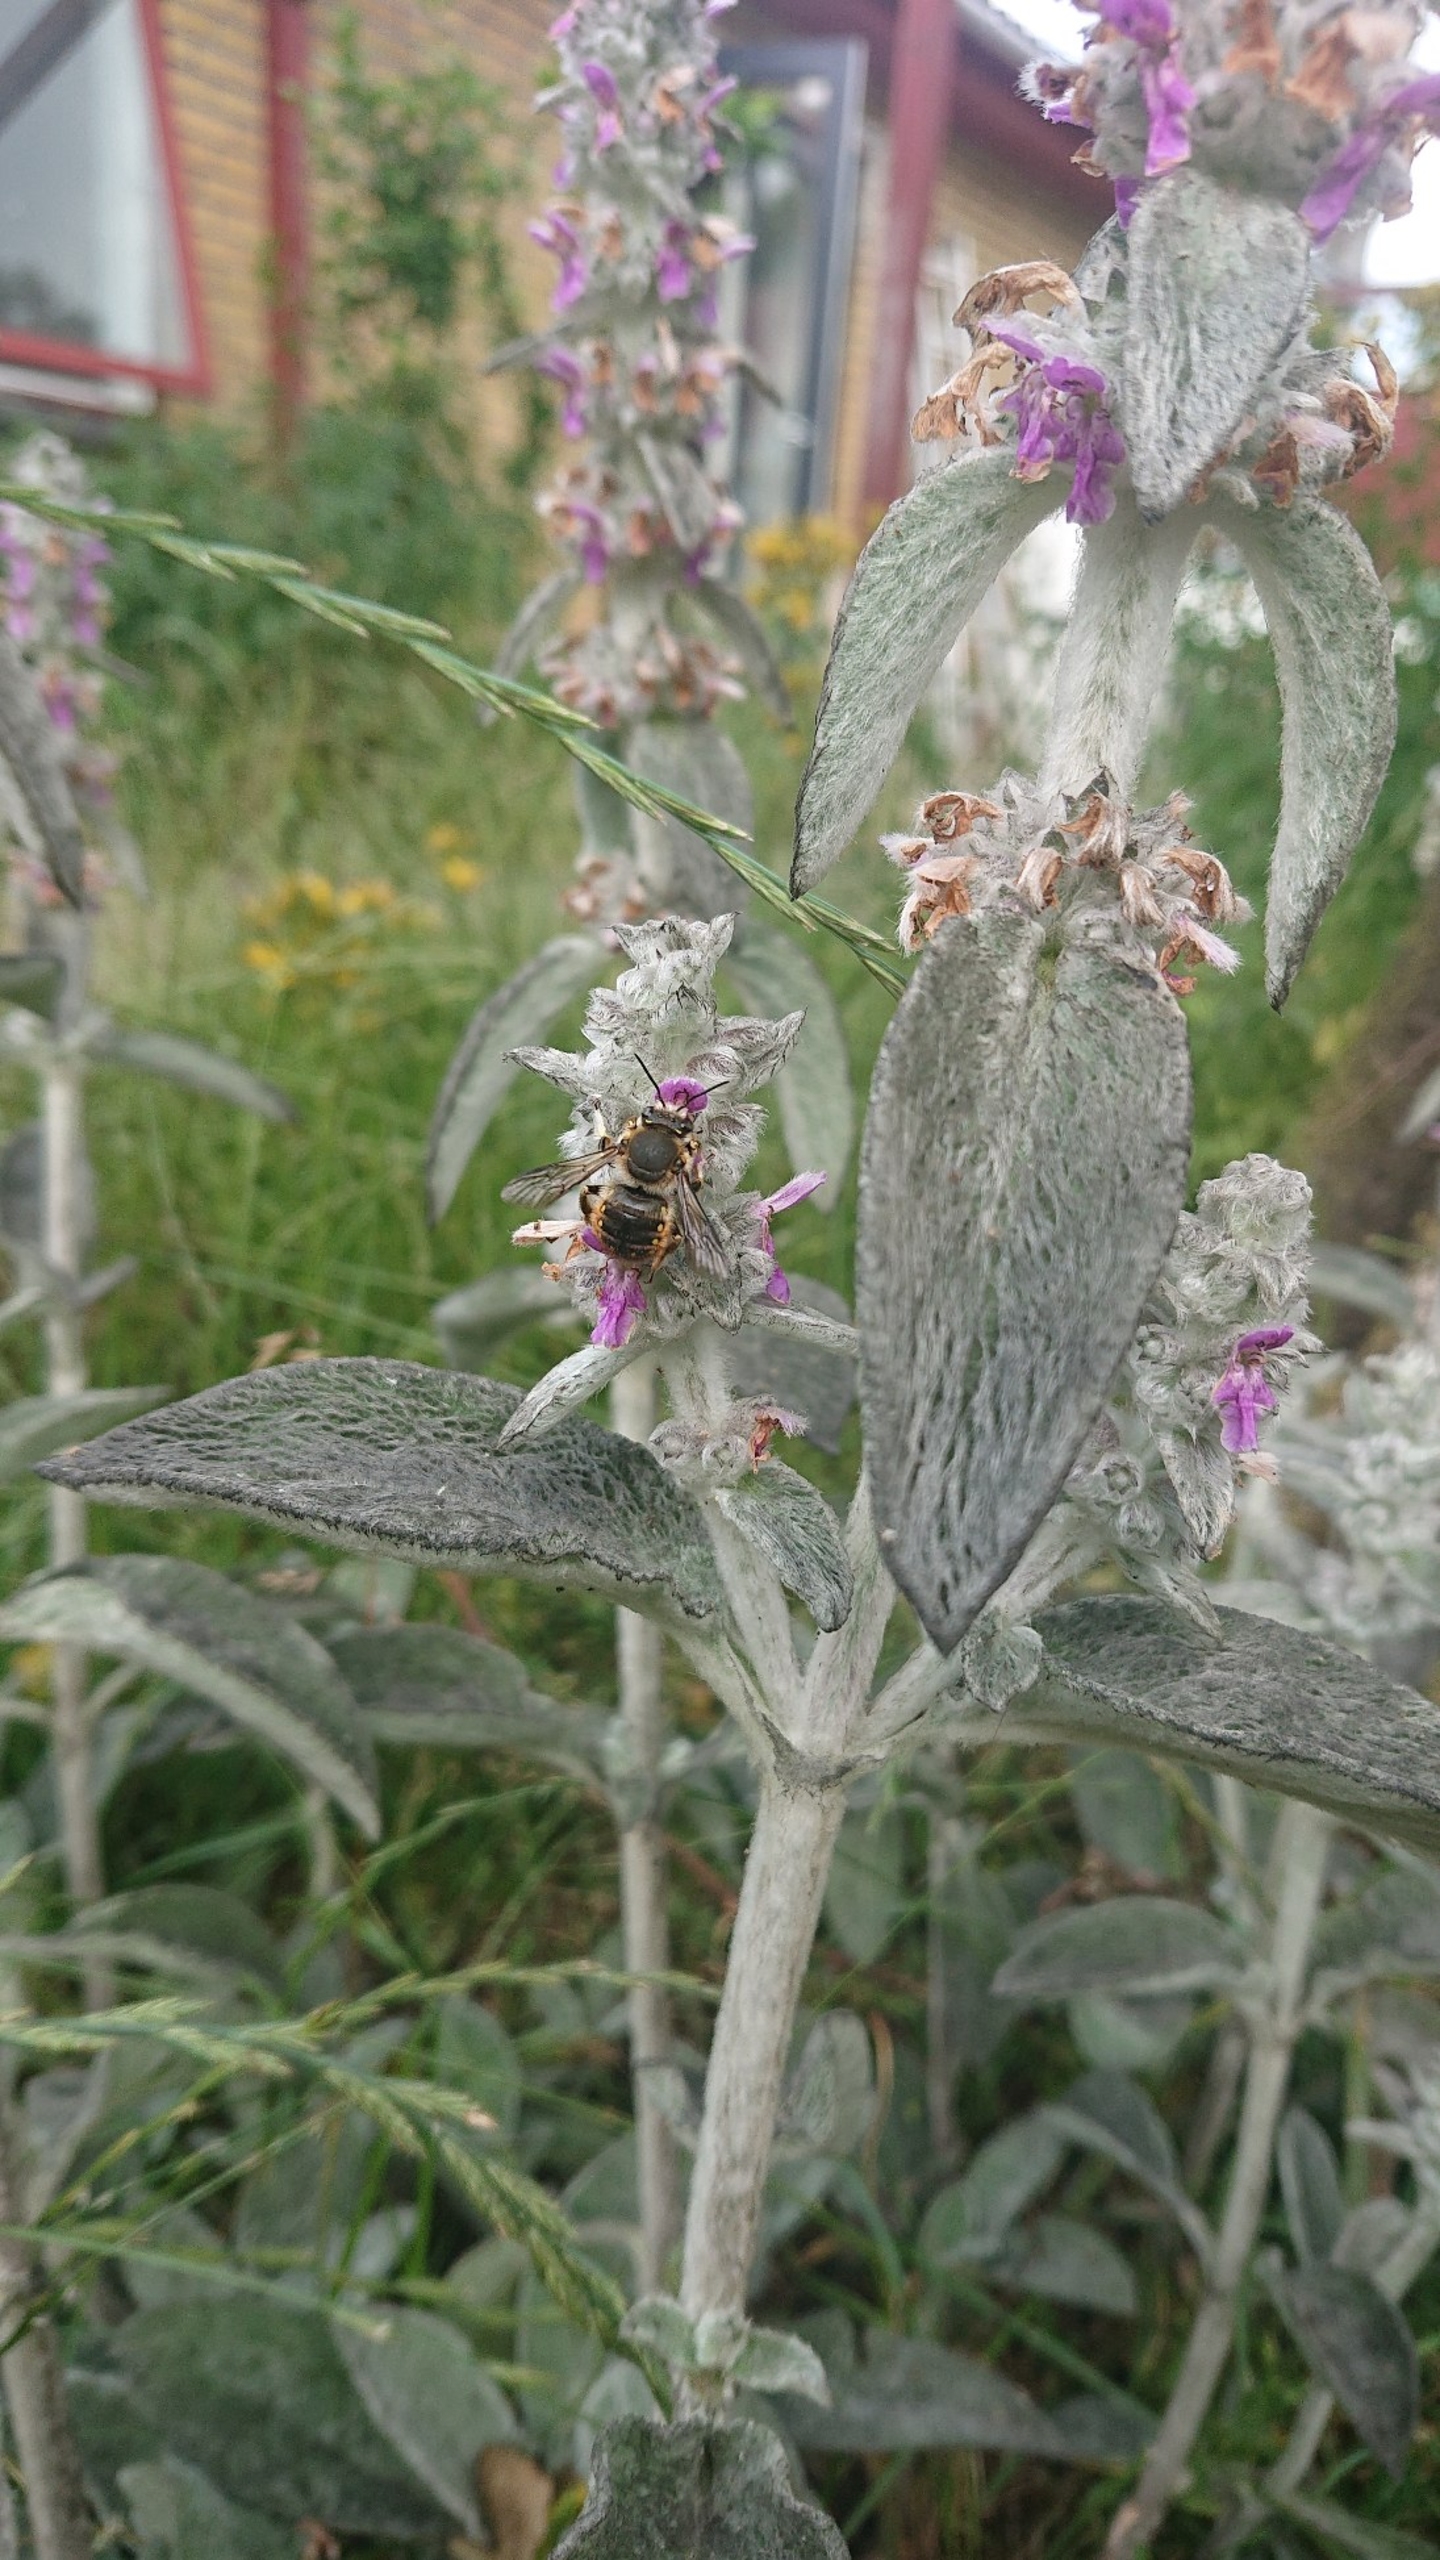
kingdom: Animalia
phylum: Arthropoda
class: Insecta
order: Hymenoptera
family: Megachilidae
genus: Anthidium
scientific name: Anthidium manicatum
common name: Stor uldbi
